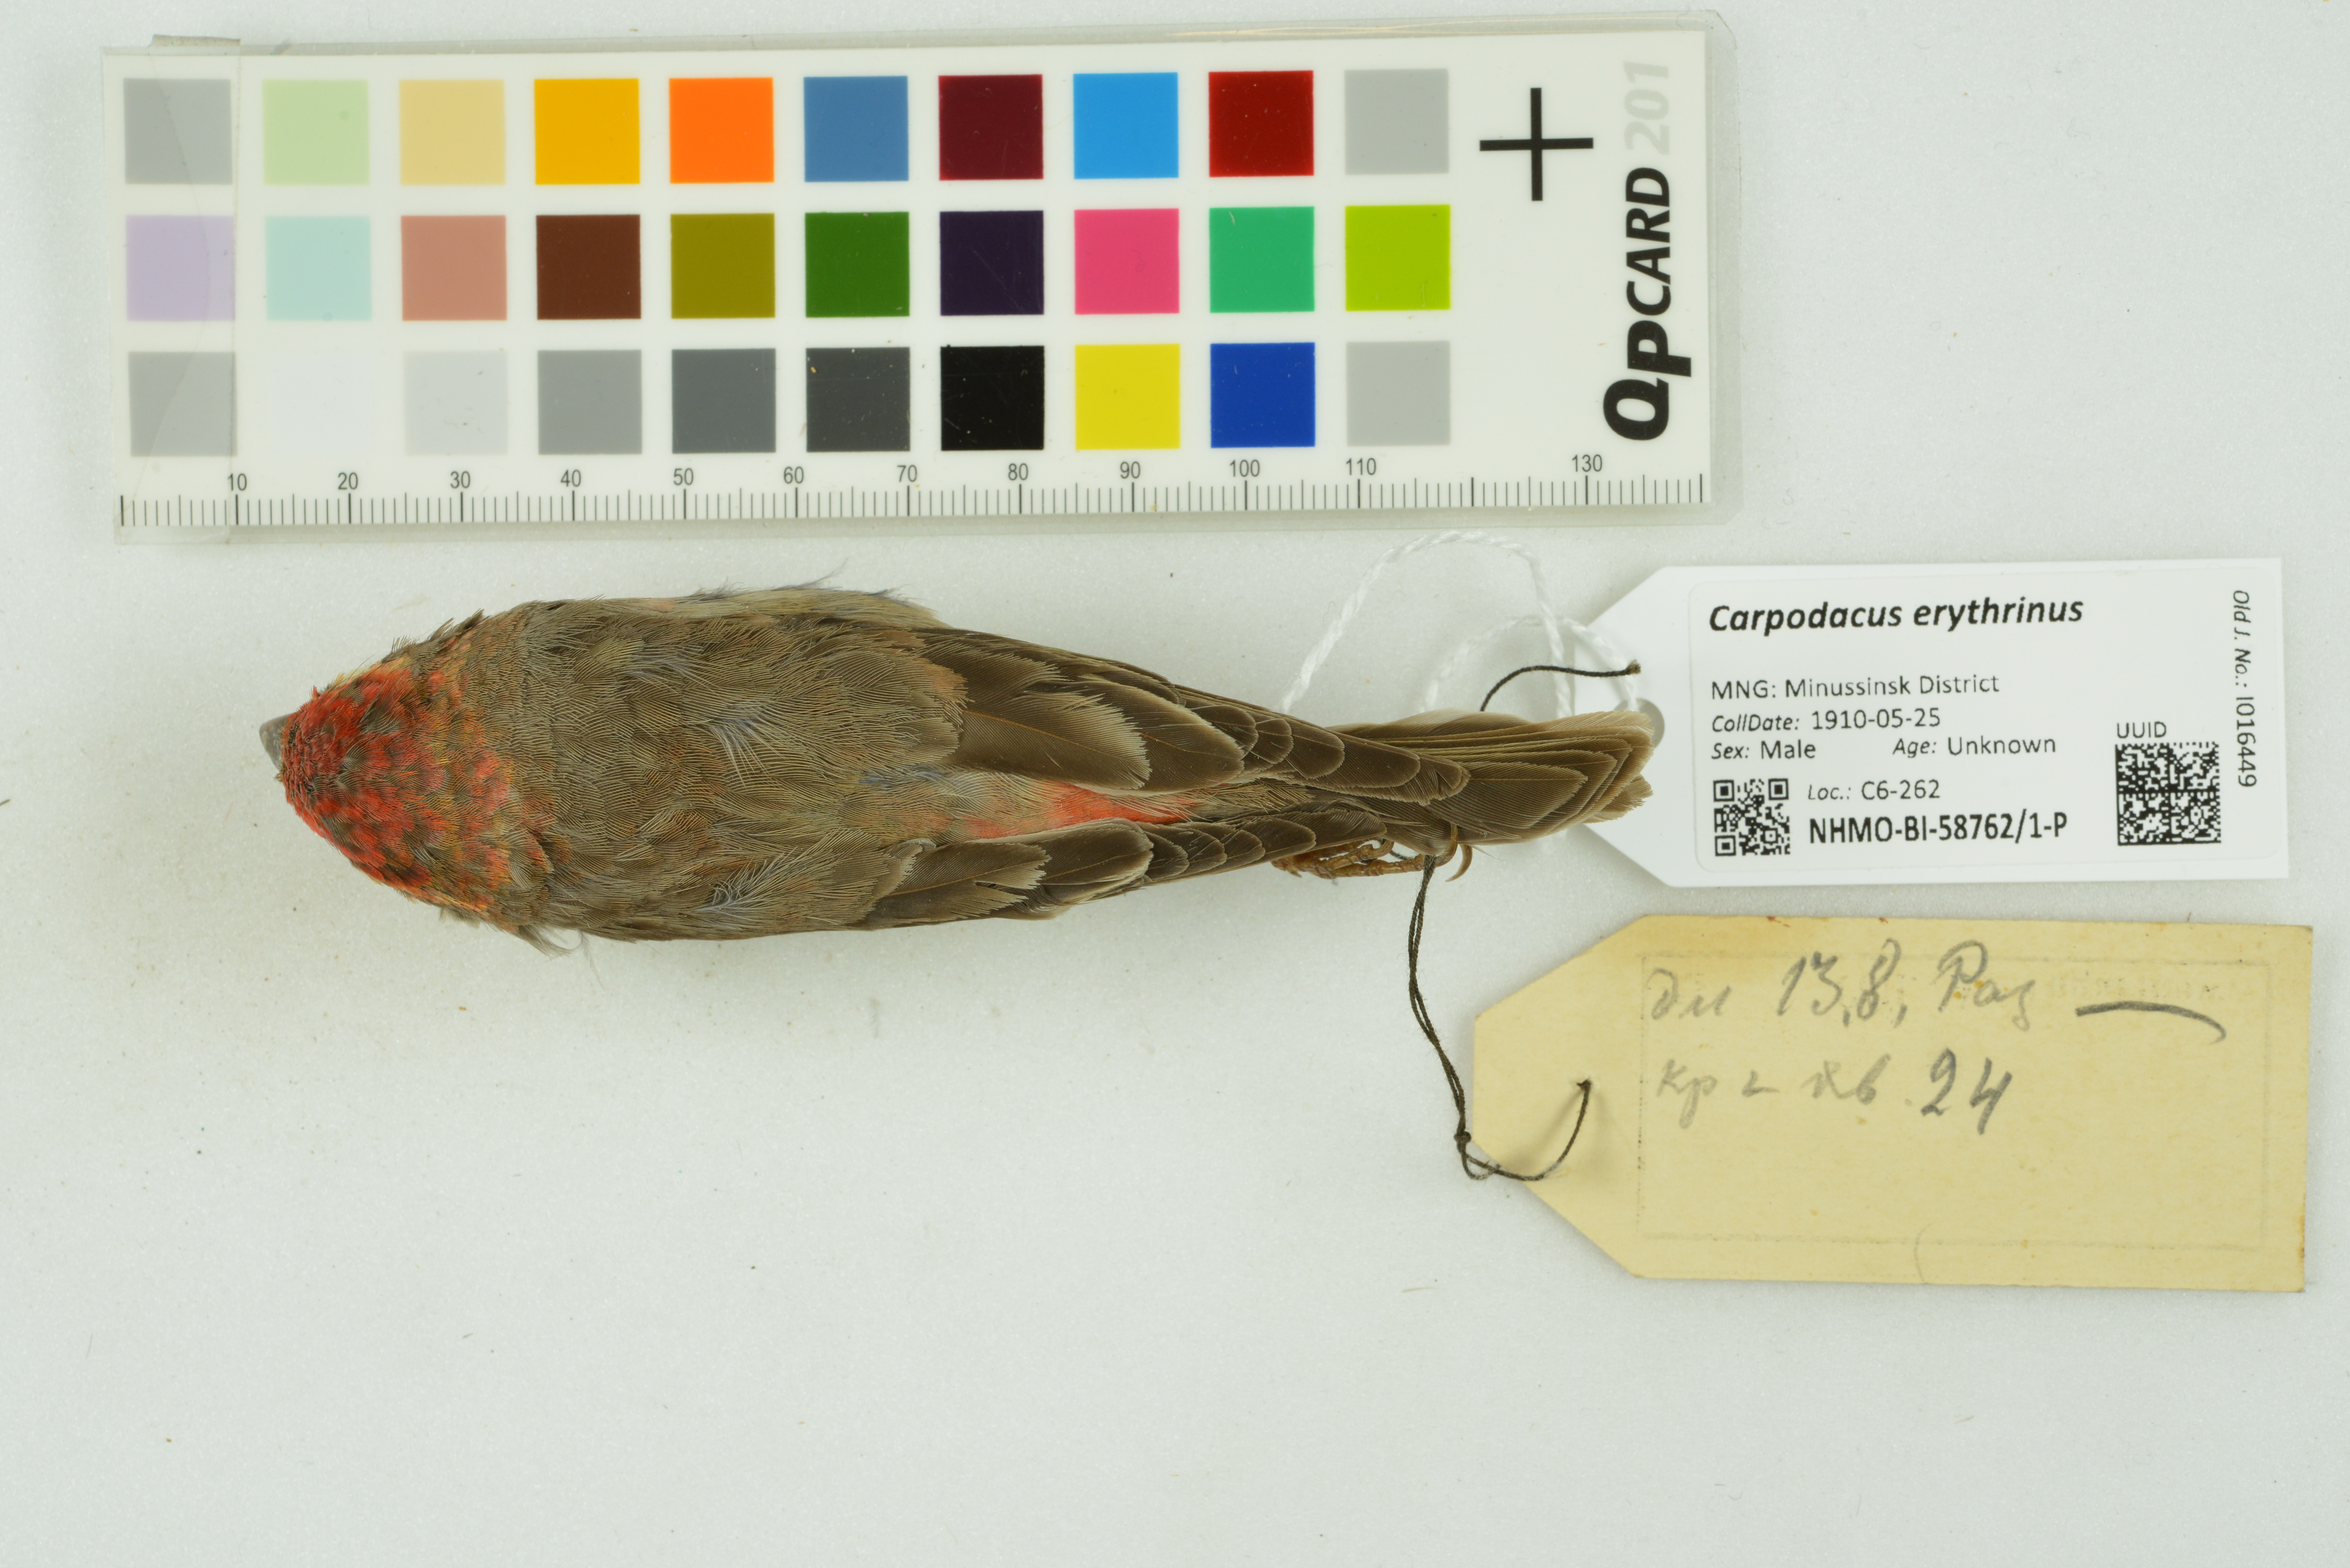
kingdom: Animalia
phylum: Chordata
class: Aves
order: Passeriformes
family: Fringillidae
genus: Carpodacus
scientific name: Carpodacus erythrinus
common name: Common rosefinch
